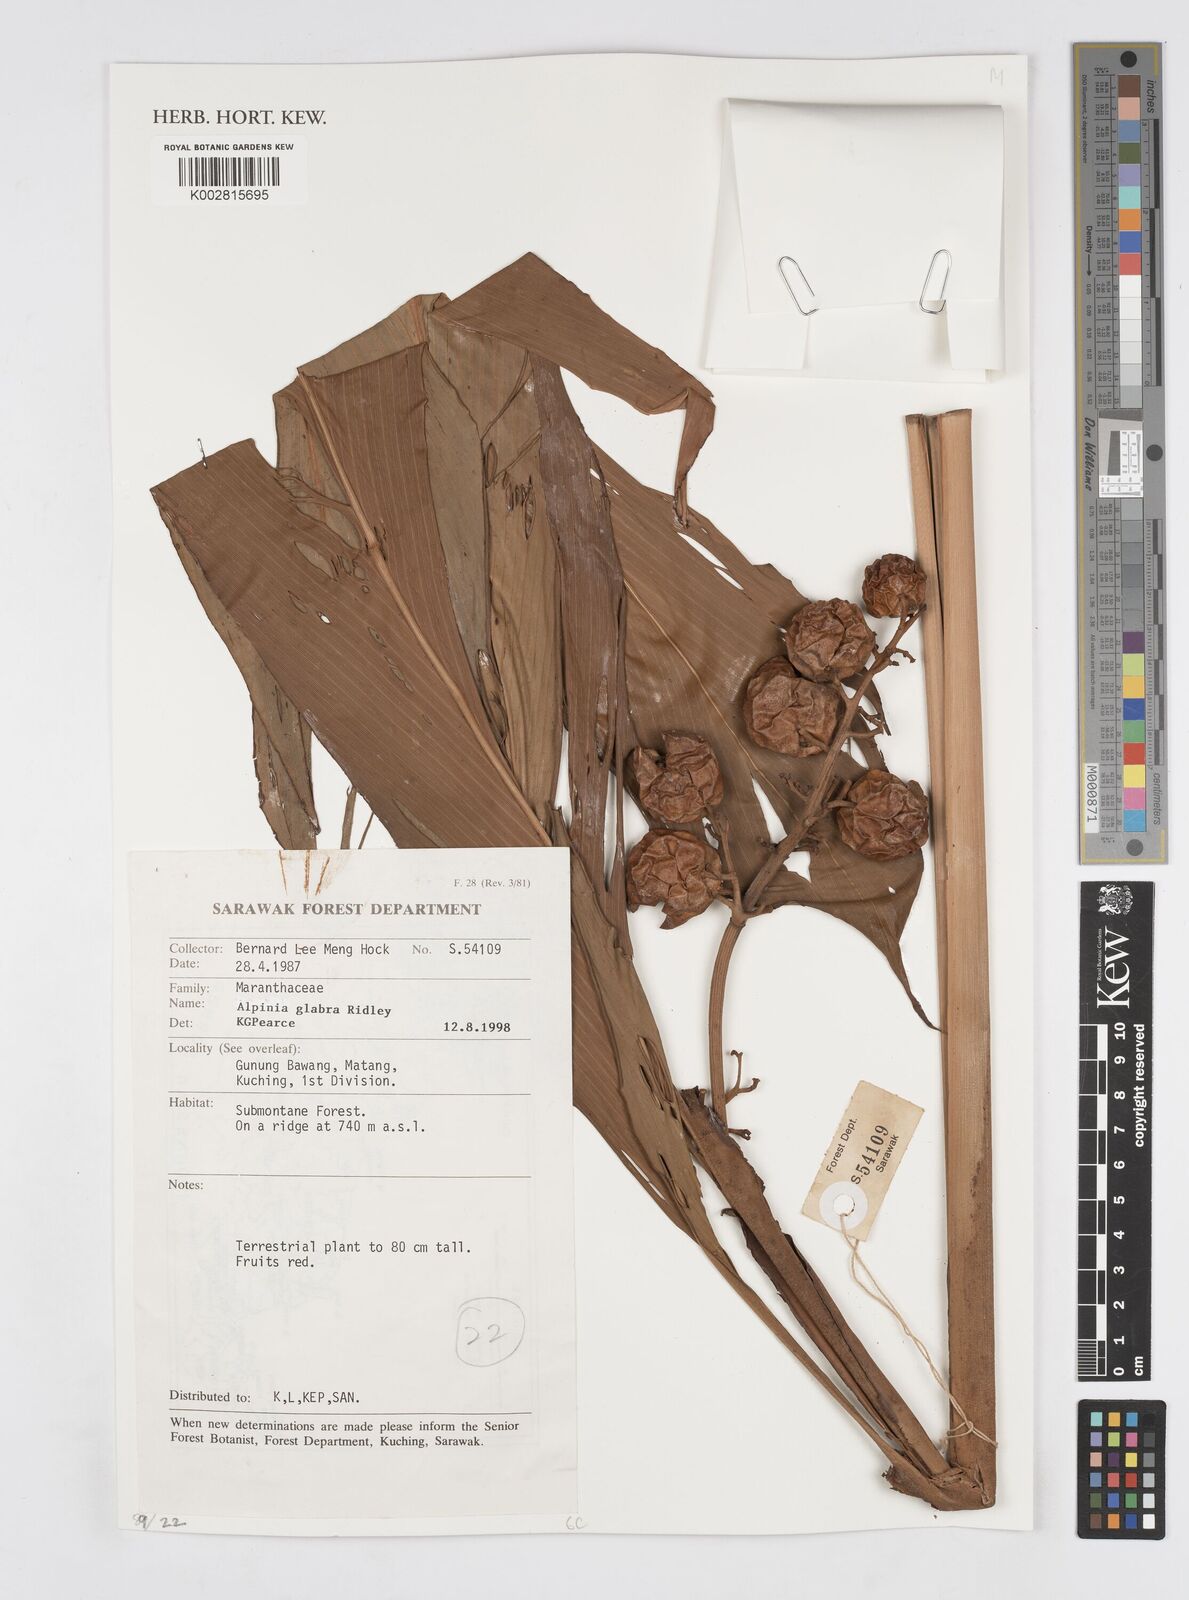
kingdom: Plantae
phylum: Tracheophyta
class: Liliopsida
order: Zingiberales
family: Zingiberaceae
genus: Alpinia
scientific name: Alpinia glabra
